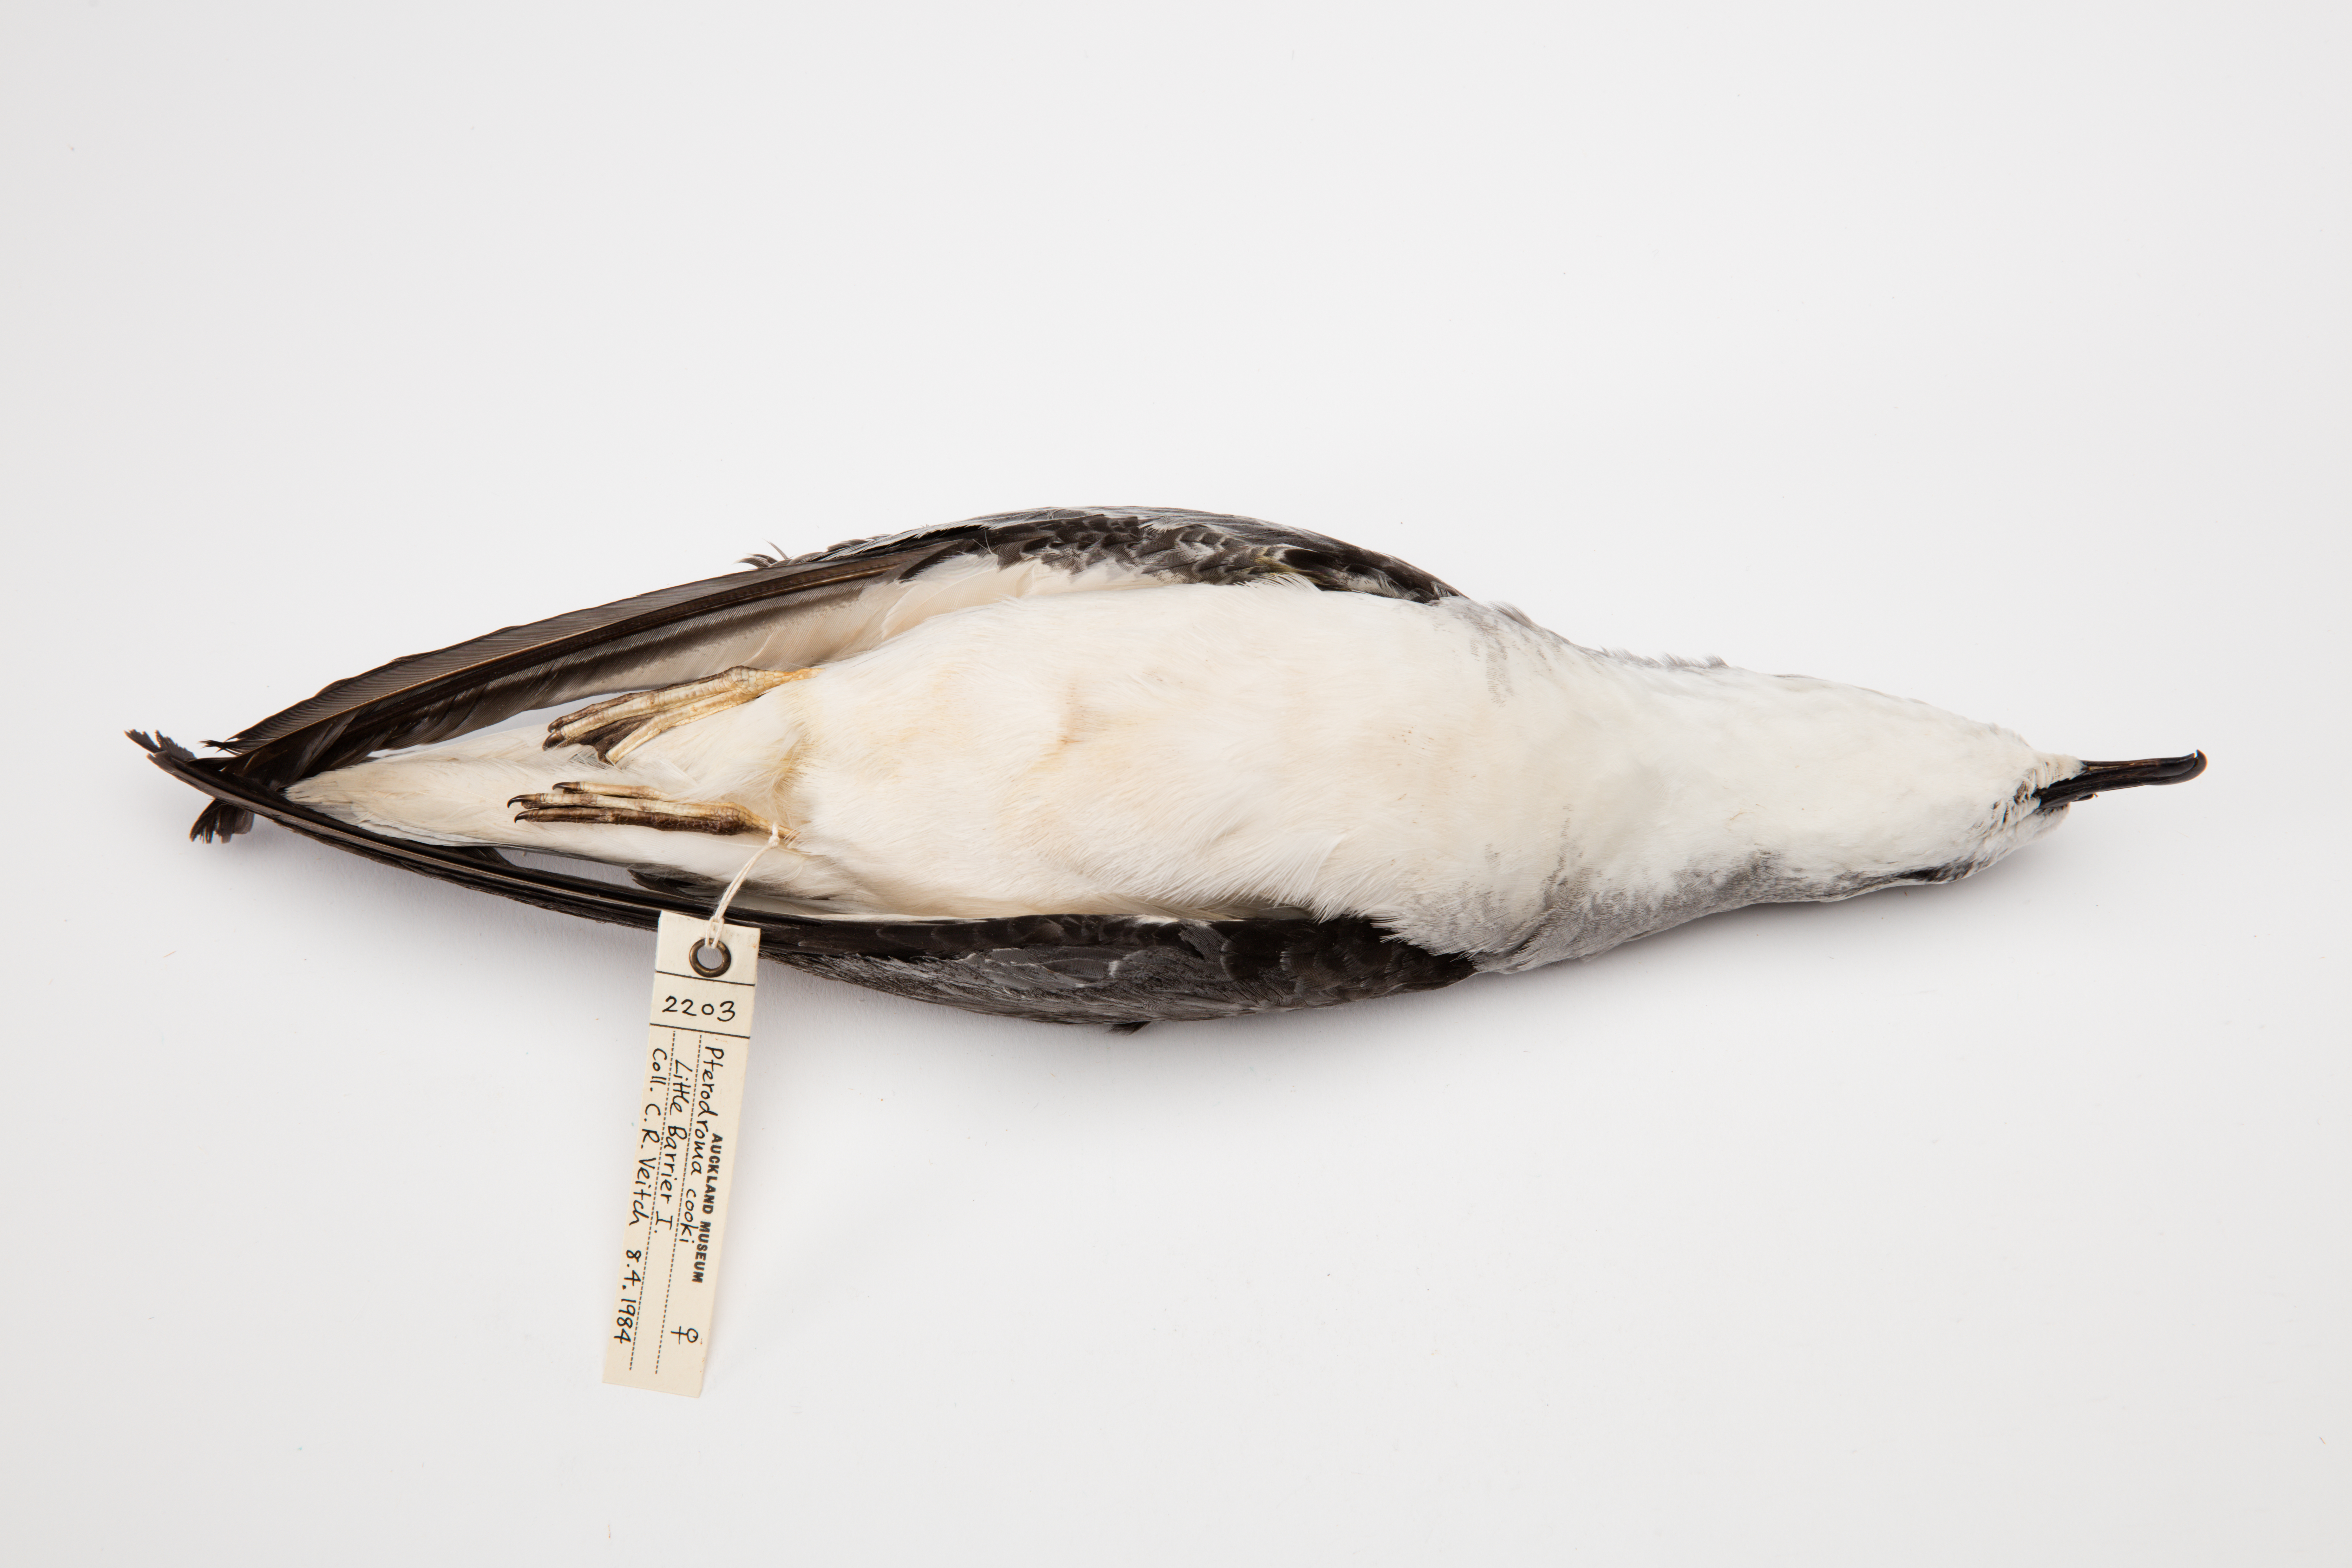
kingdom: Animalia
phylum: Chordata
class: Aves
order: Procellariiformes
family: Procellariidae
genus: Pterodroma
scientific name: Pterodroma cookii
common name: Cook's petrel
